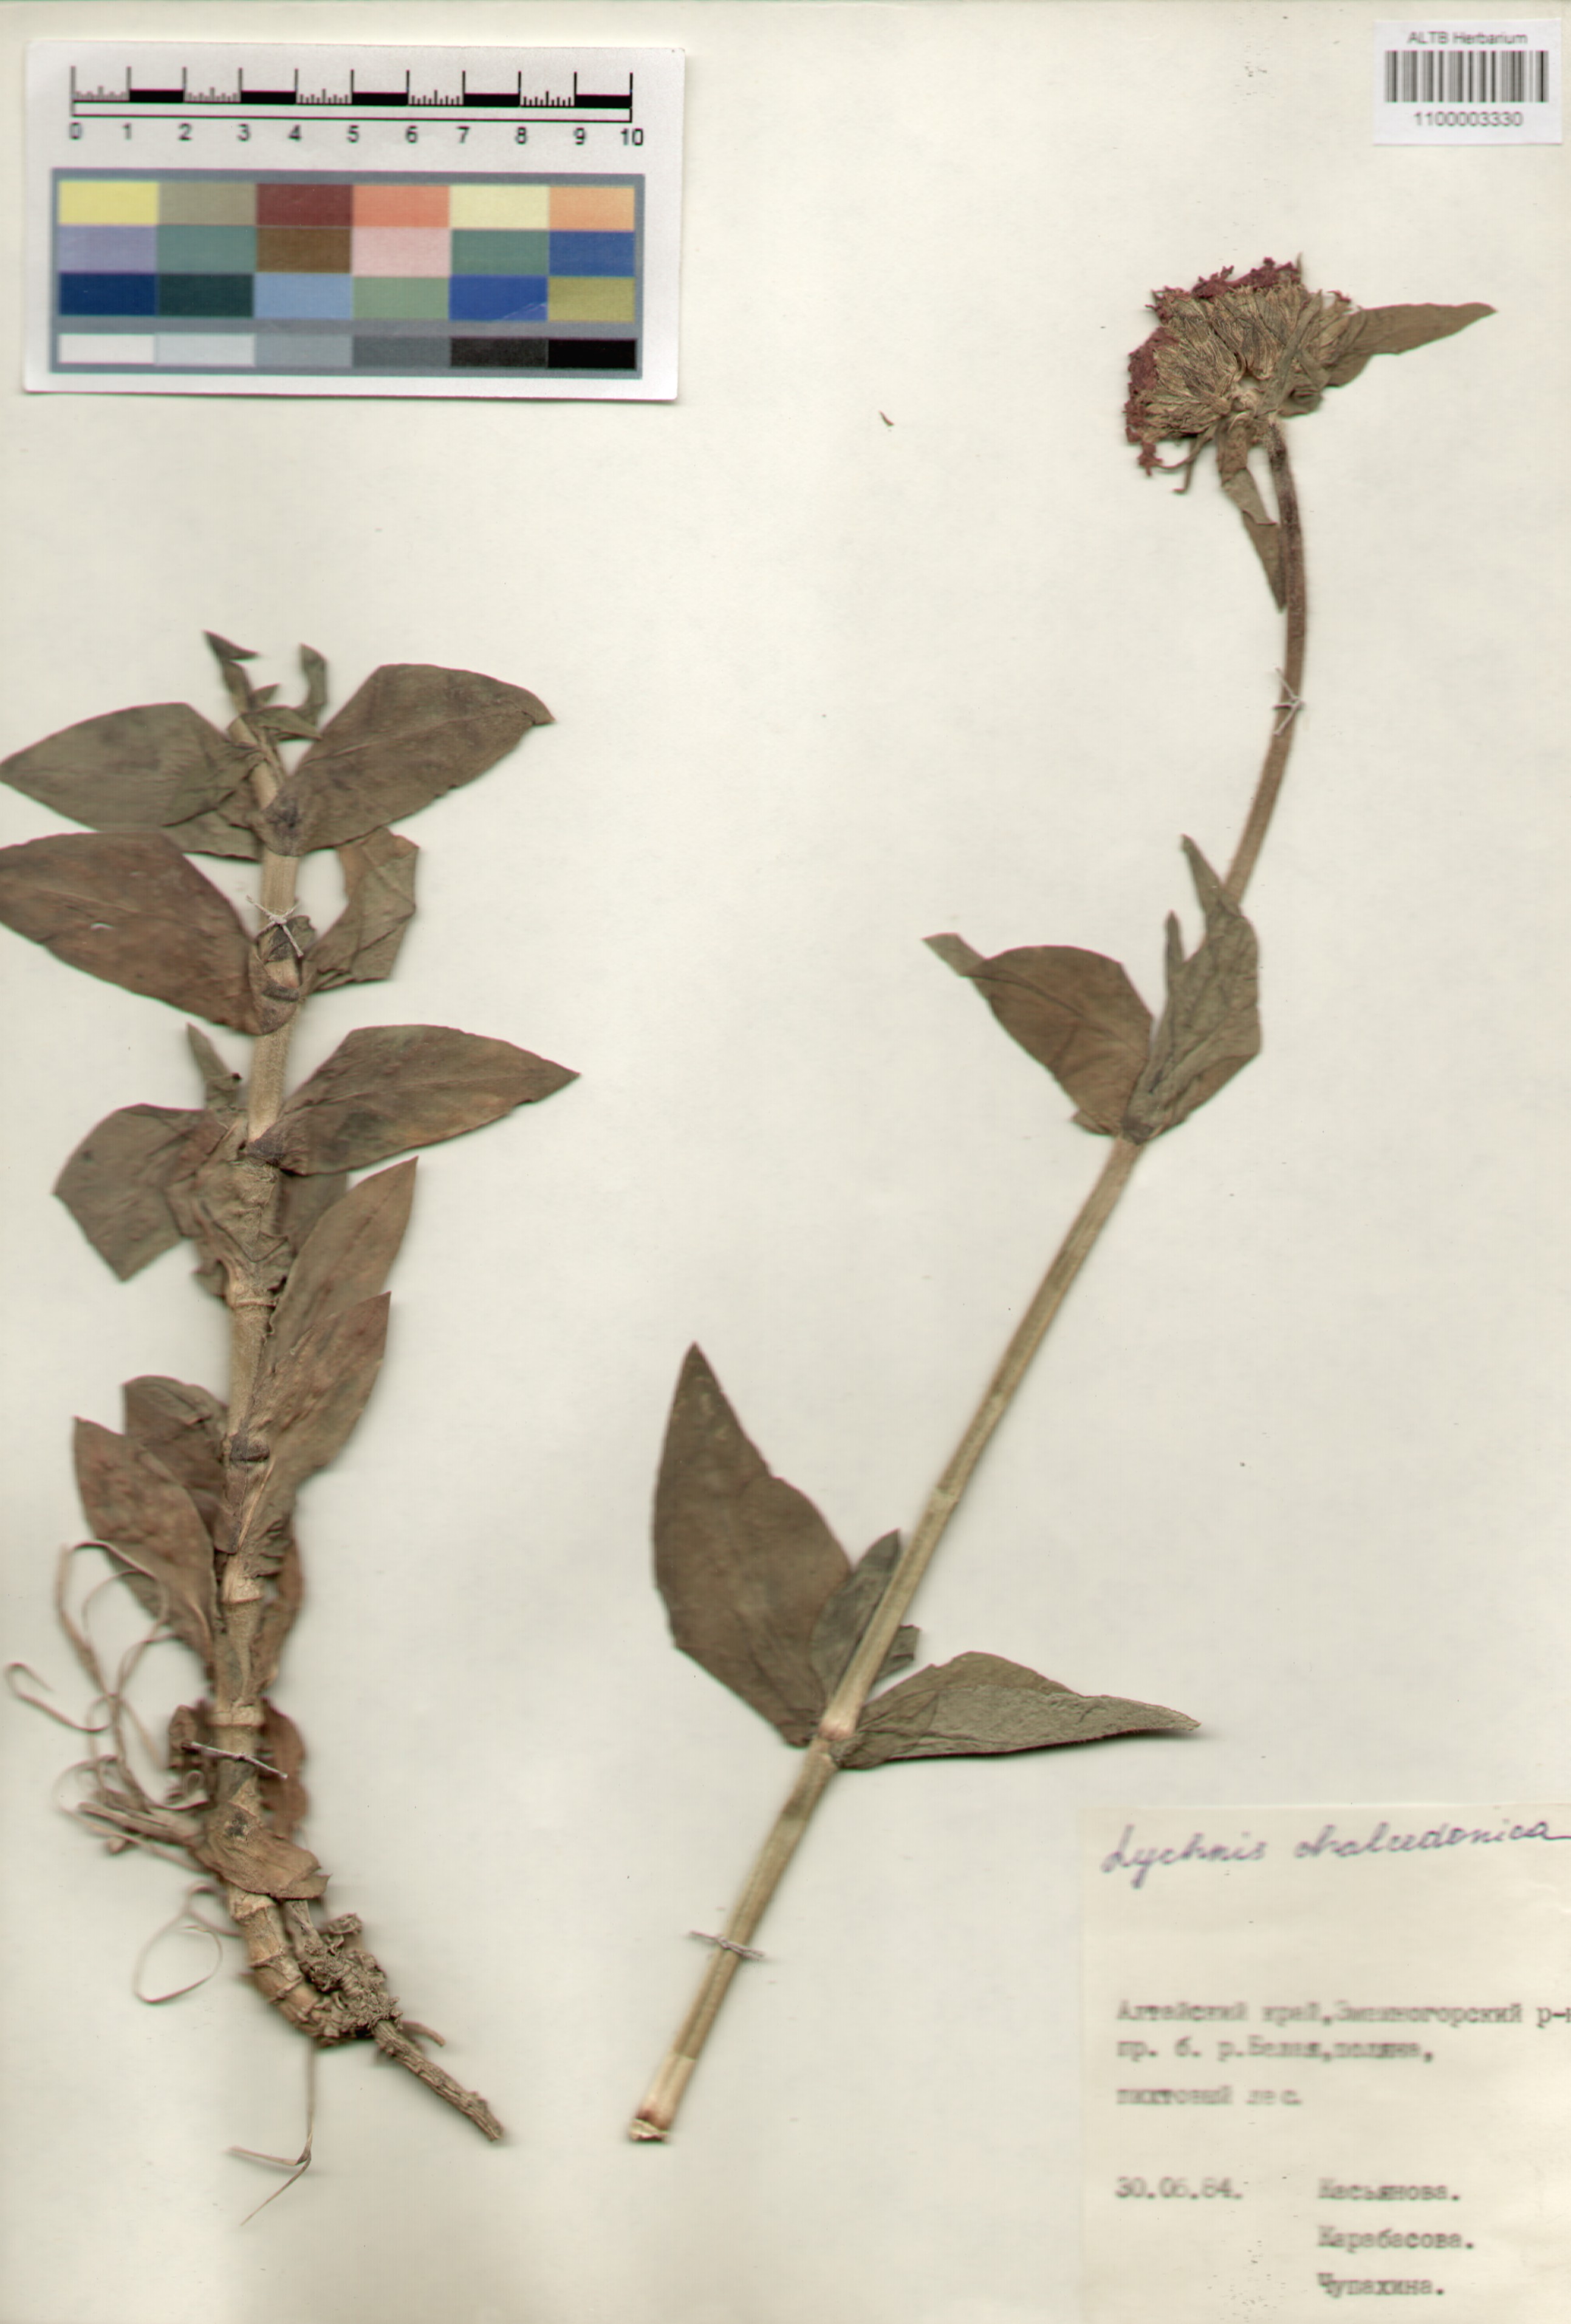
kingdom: Plantae
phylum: Tracheophyta
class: Magnoliopsida
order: Caryophyllales
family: Caryophyllaceae
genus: Silene
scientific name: Silene chalcedonica
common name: Maltese-cross
